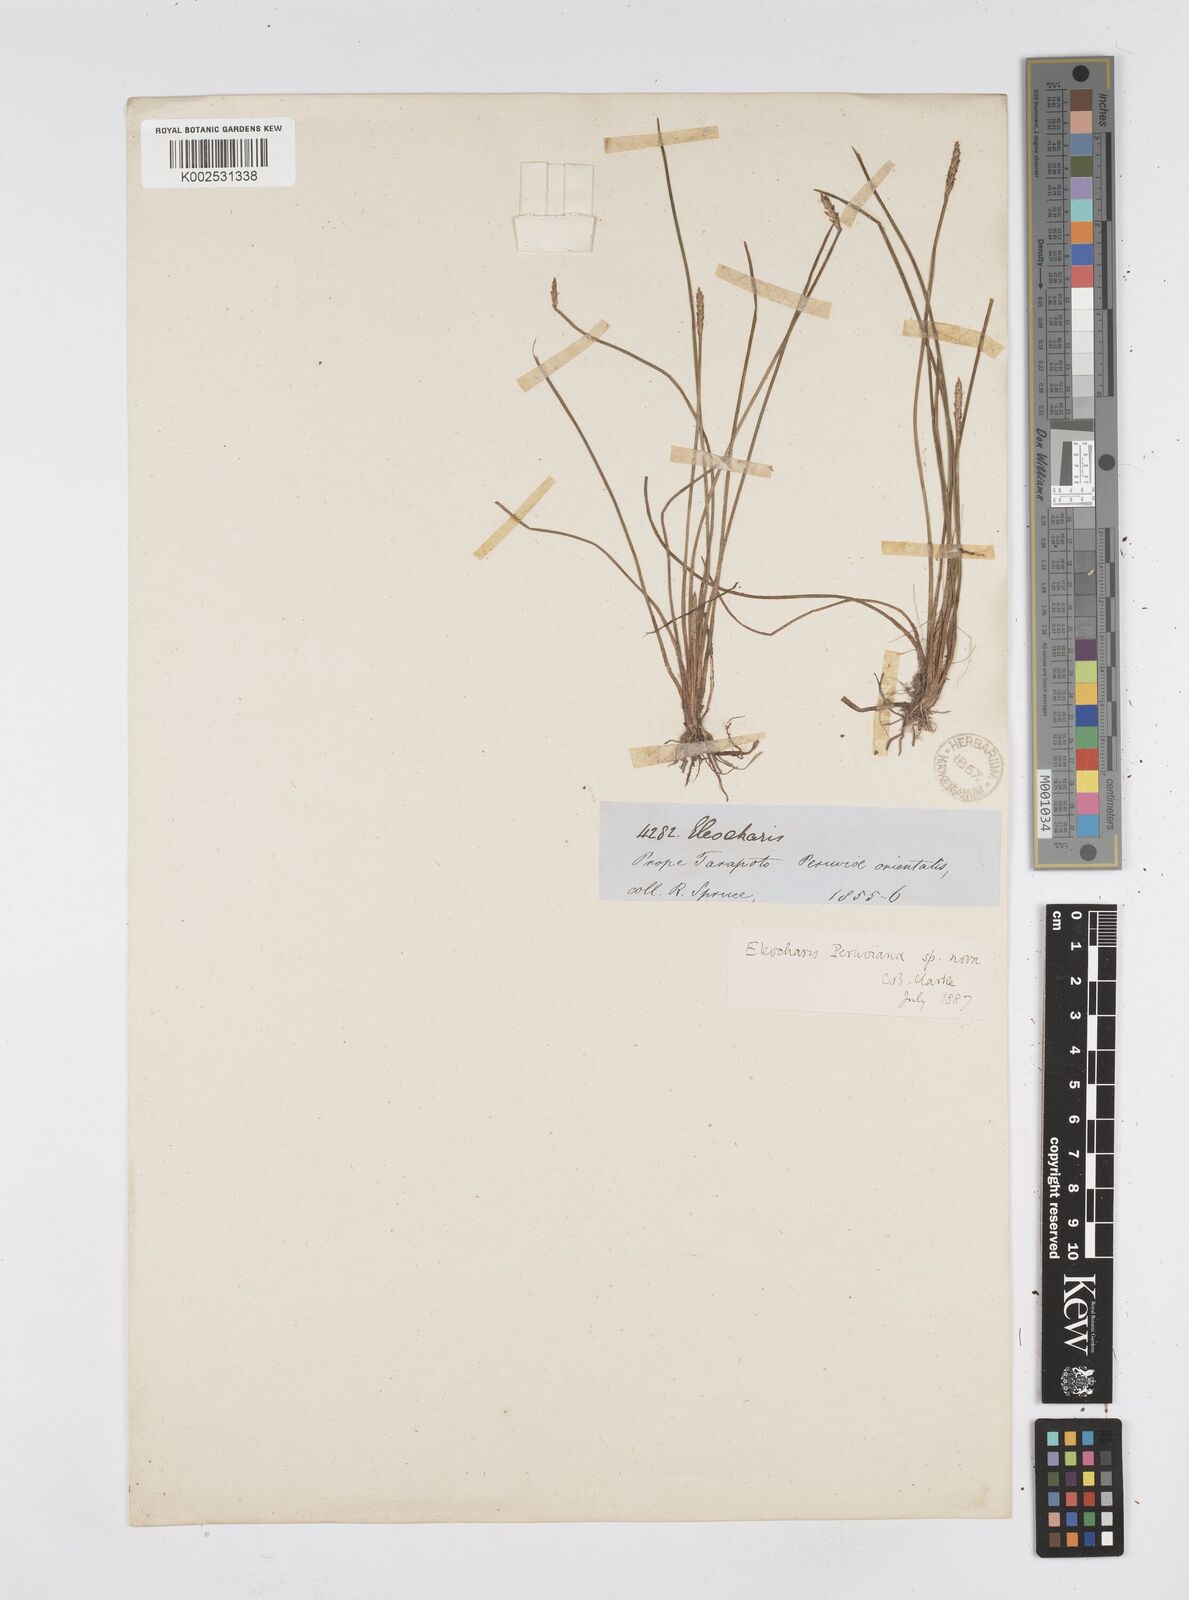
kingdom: Plantae
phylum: Tracheophyta
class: Liliopsida
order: Poales
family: Cyperaceae
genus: Eleocharis
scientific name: Eleocharis
